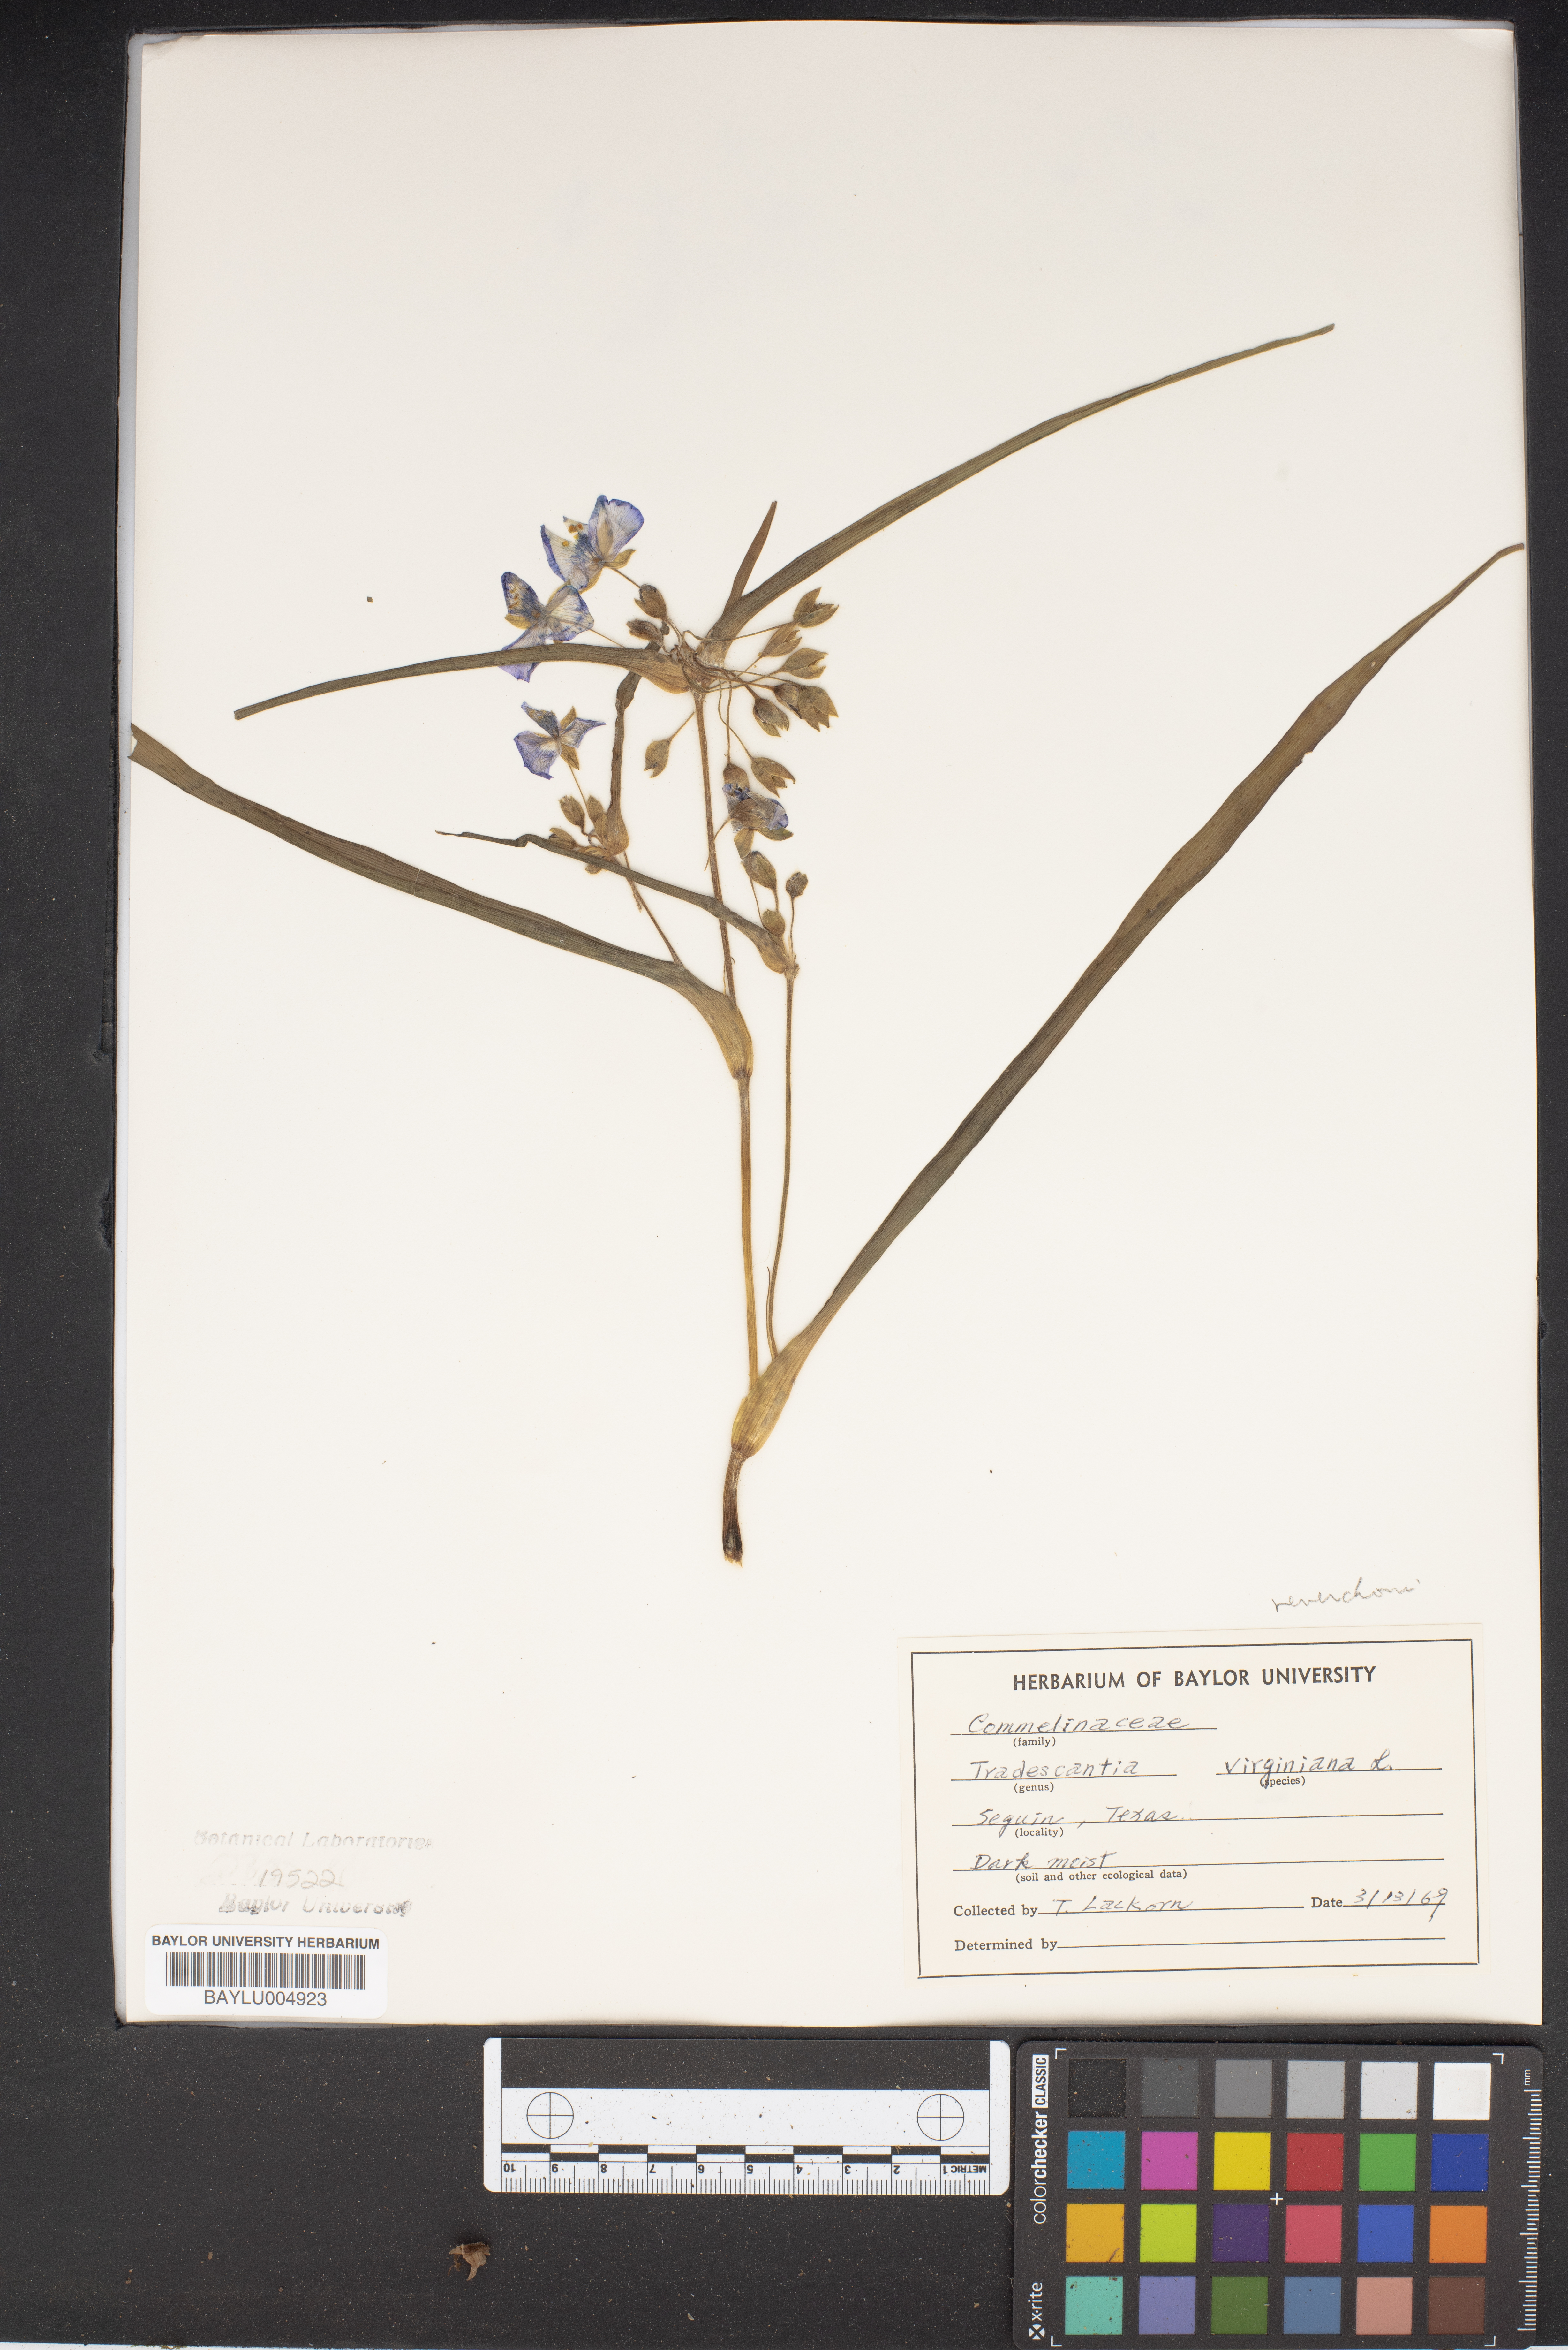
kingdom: Plantae
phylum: Tracheophyta
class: Liliopsida
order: Commelinales
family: Commelinaceae
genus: Tradescantia
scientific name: Tradescantia virginiana
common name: Spiderwort
